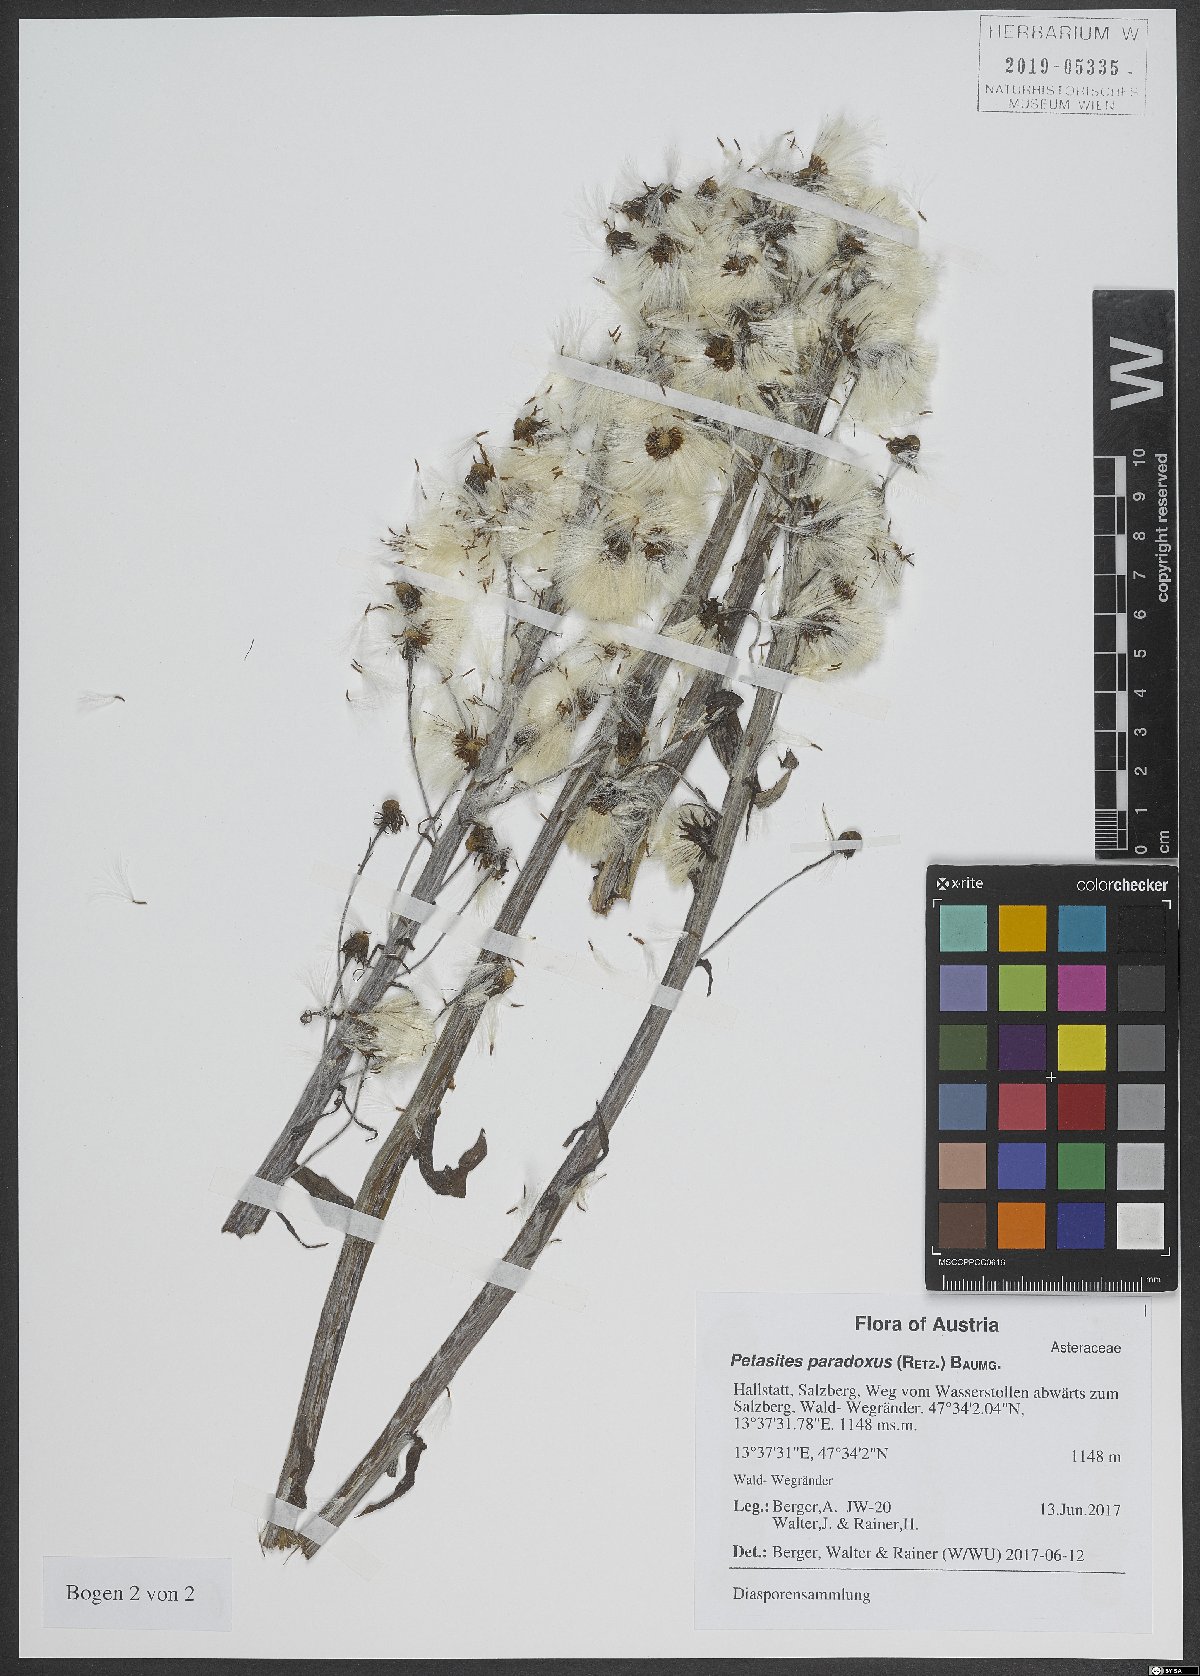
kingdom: Plantae
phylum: Tracheophyta
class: Magnoliopsida
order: Asterales
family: Asteraceae
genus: Petasites
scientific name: Petasites paradoxus
